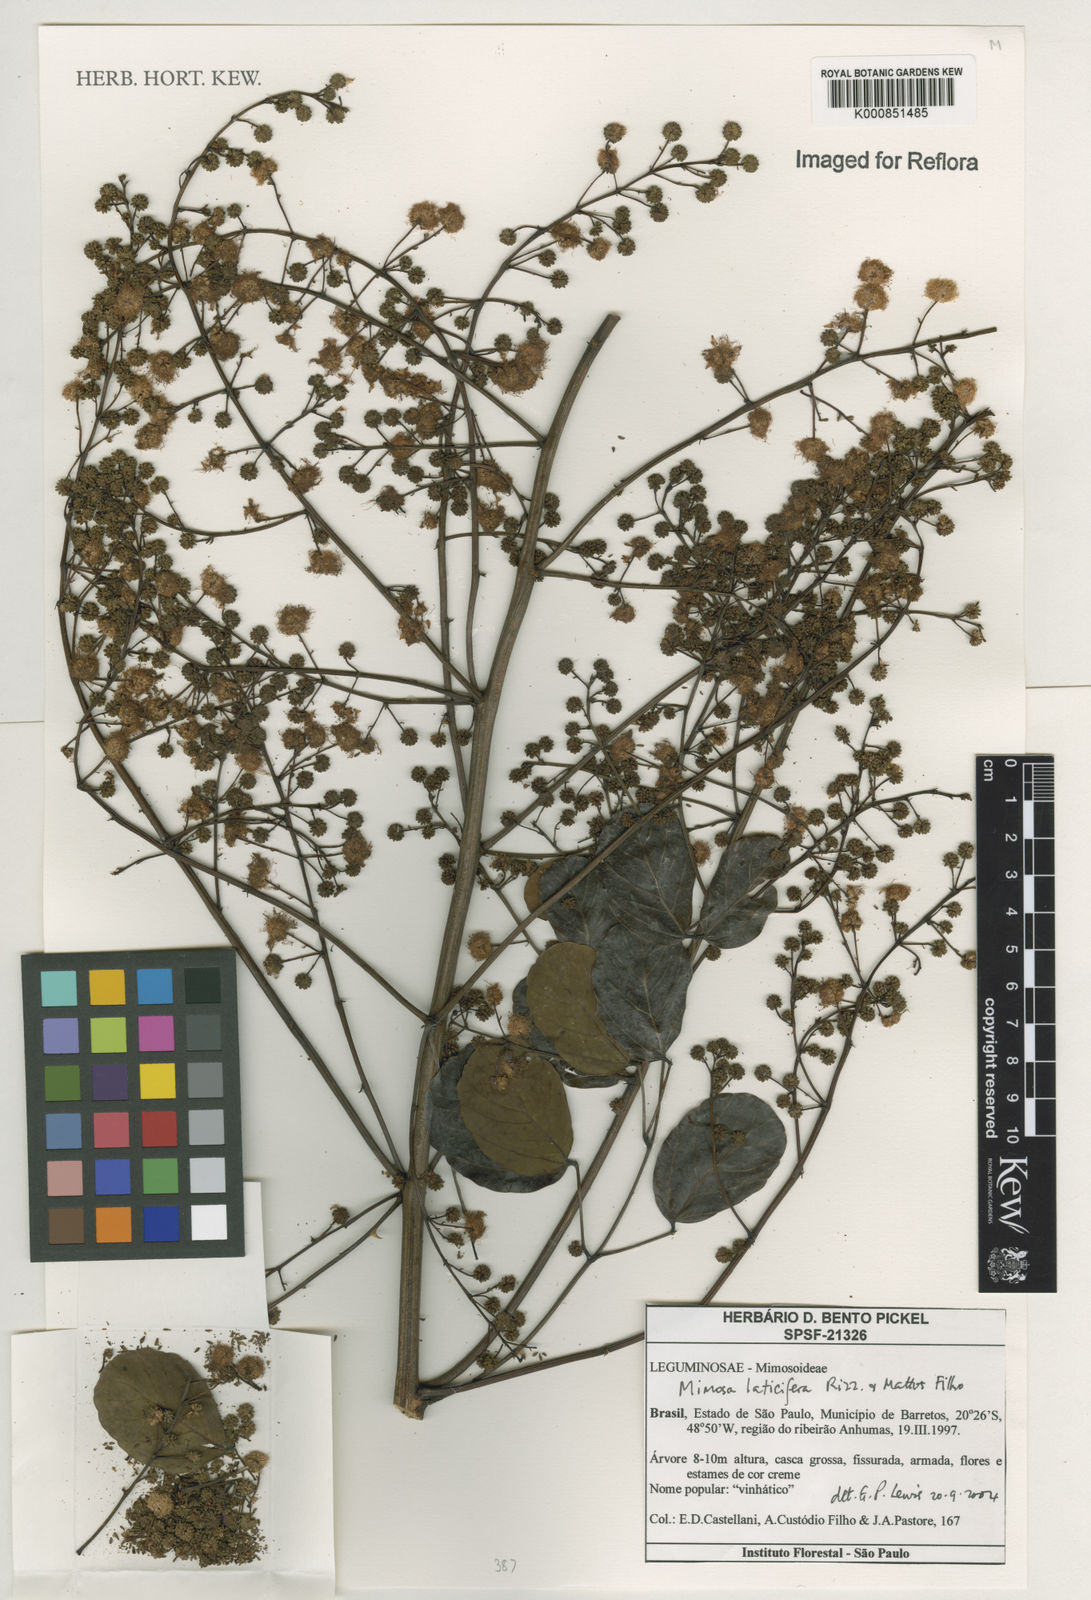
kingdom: Plantae
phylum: Tracheophyta
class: Magnoliopsida
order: Fabales
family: Fabaceae
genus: Mimosa
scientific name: Mimosa laticifera
